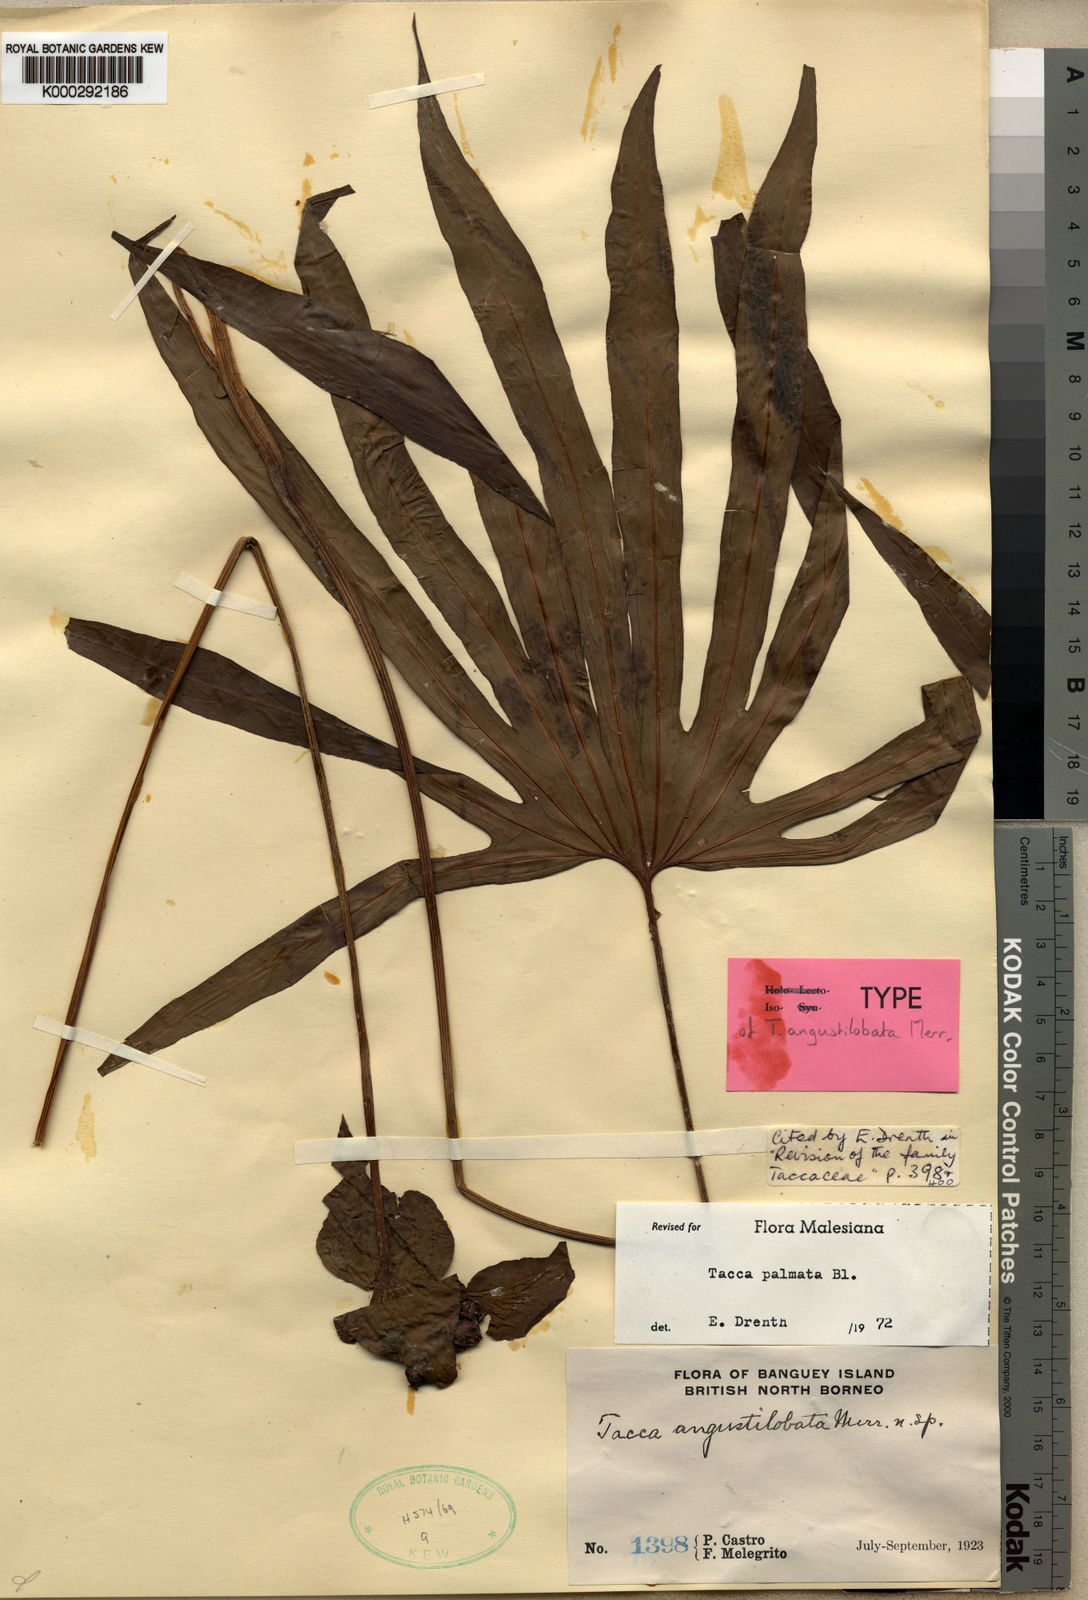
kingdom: Plantae
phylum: Tracheophyta
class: Liliopsida
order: Dioscoreales
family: Dioscoreaceae
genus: Tacca
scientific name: Tacca palmata
